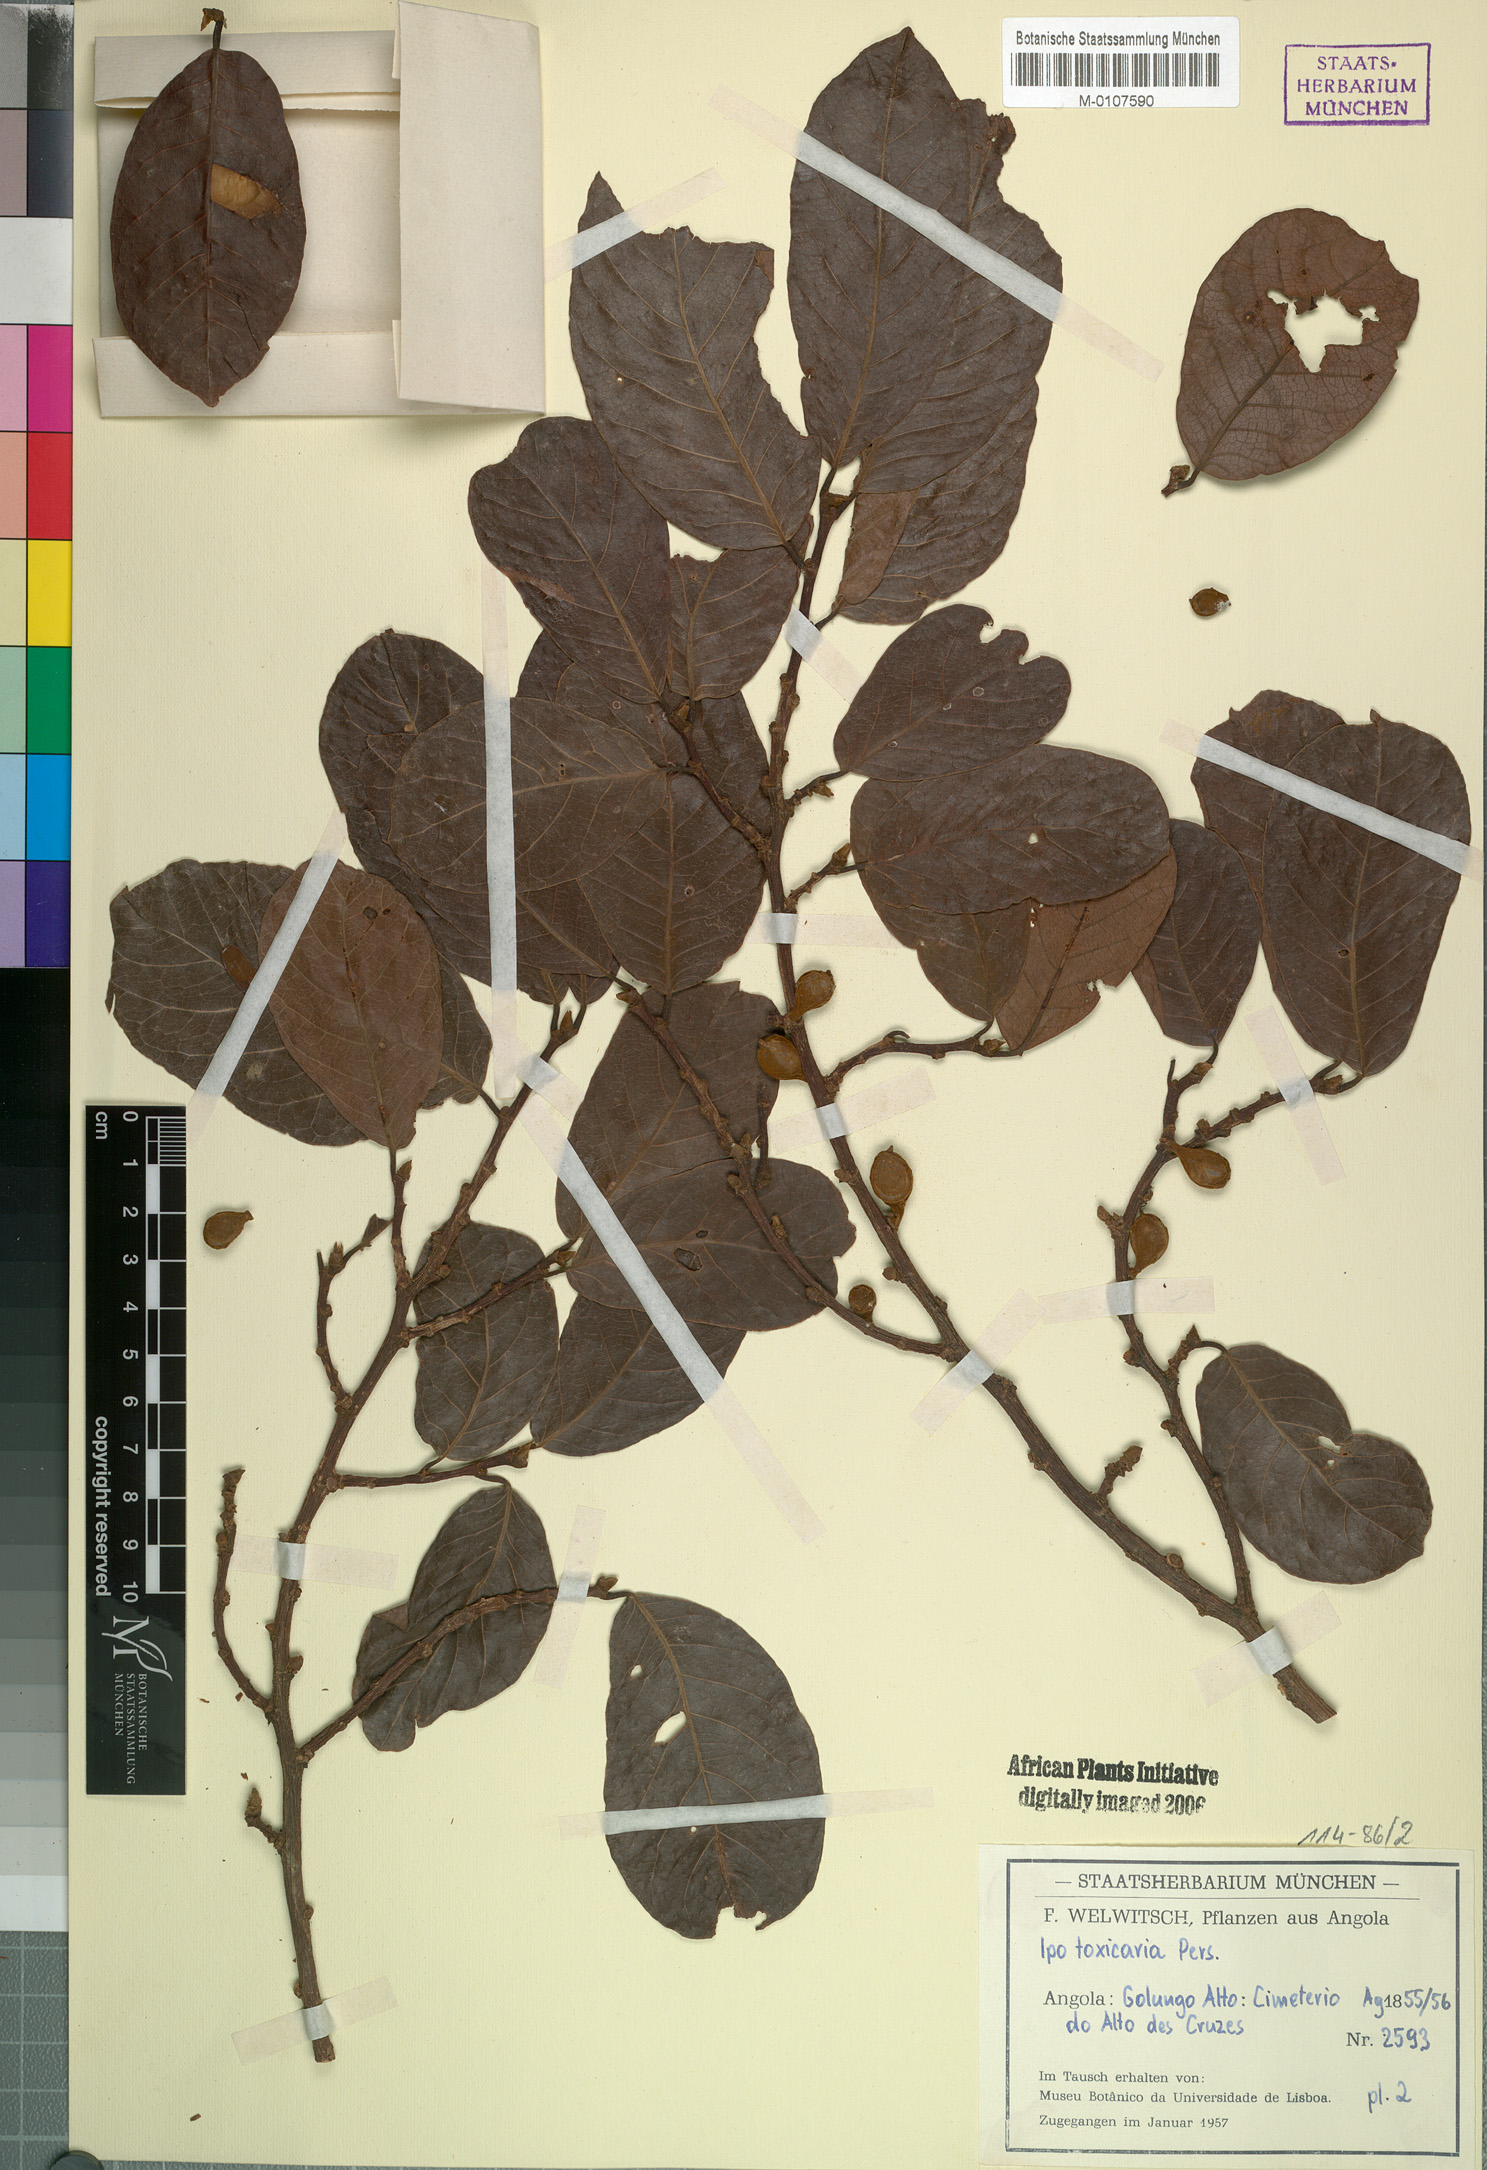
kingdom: Plantae
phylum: Tracheophyta
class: Magnoliopsida
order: Rosales
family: Moraceae
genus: Antiaris
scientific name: Antiaris toxicaria
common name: Sackingtree
